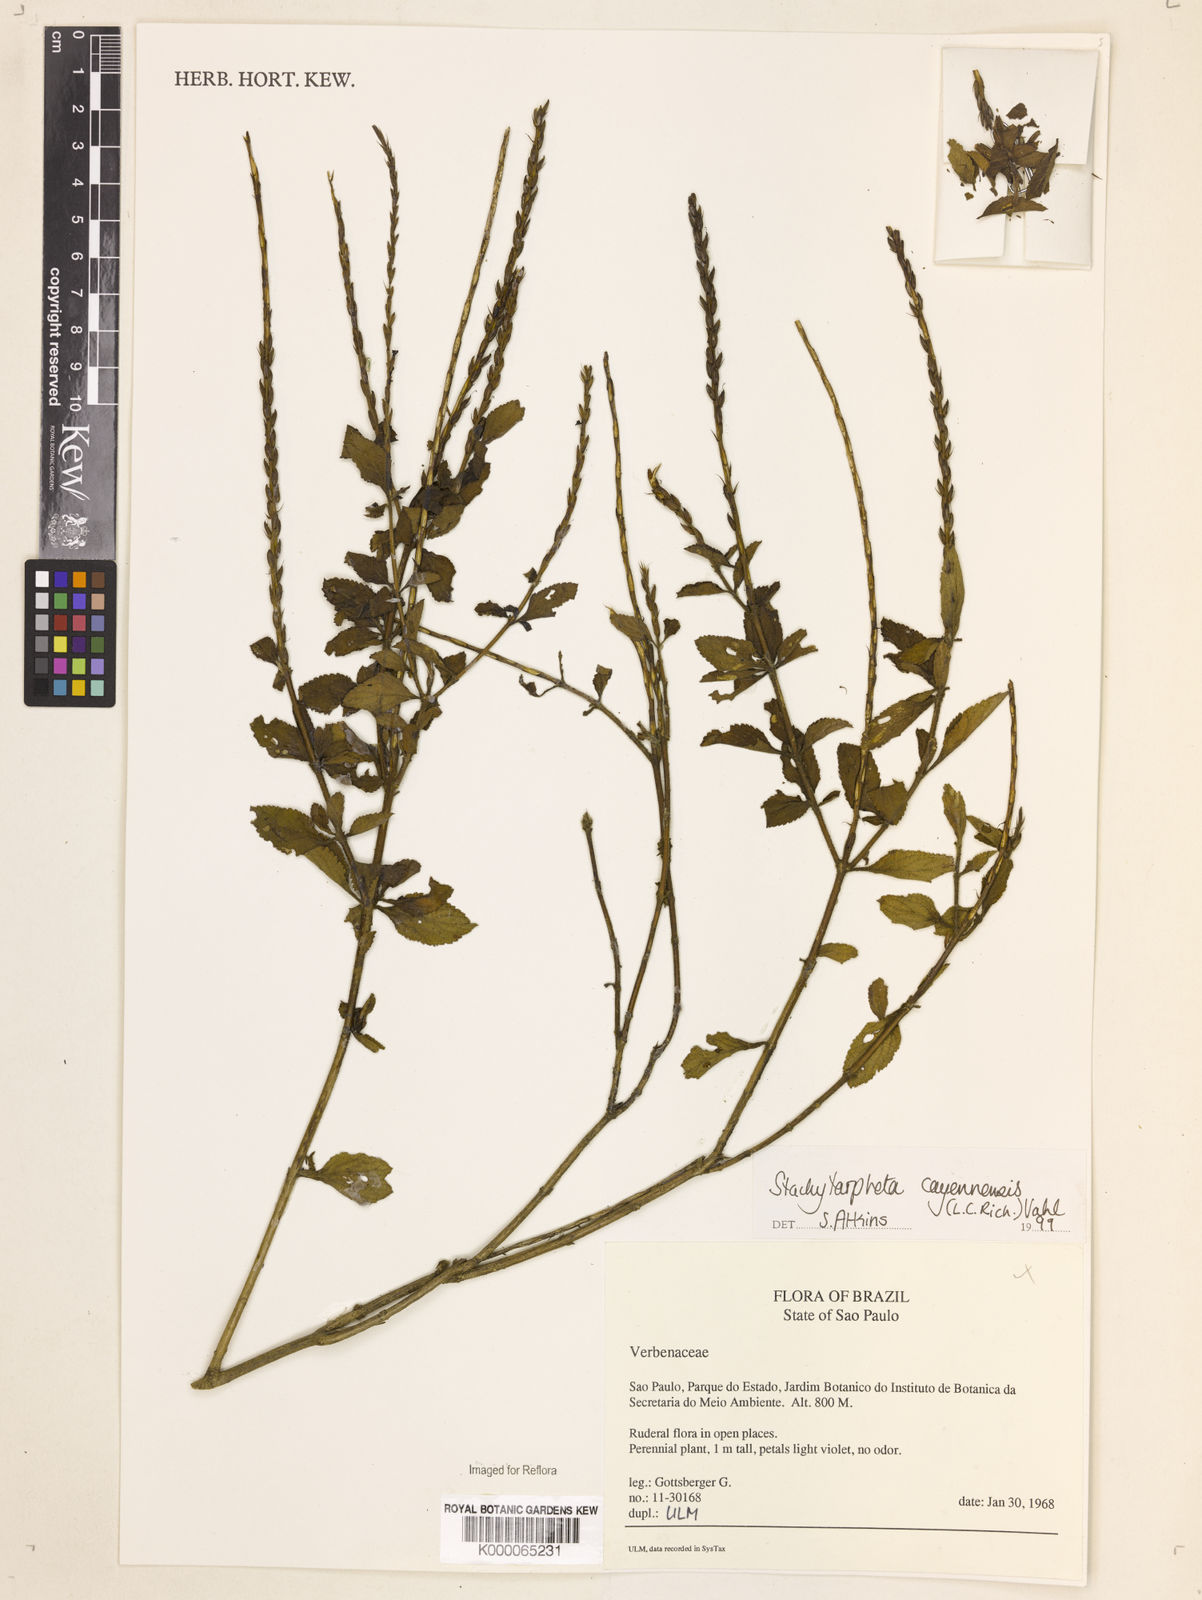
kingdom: Plantae
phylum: Tracheophyta
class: Magnoliopsida
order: Lamiales
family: Verbenaceae
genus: Stachytarpheta
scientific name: Stachytarpheta cayennensis
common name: Cayenne porterweed
